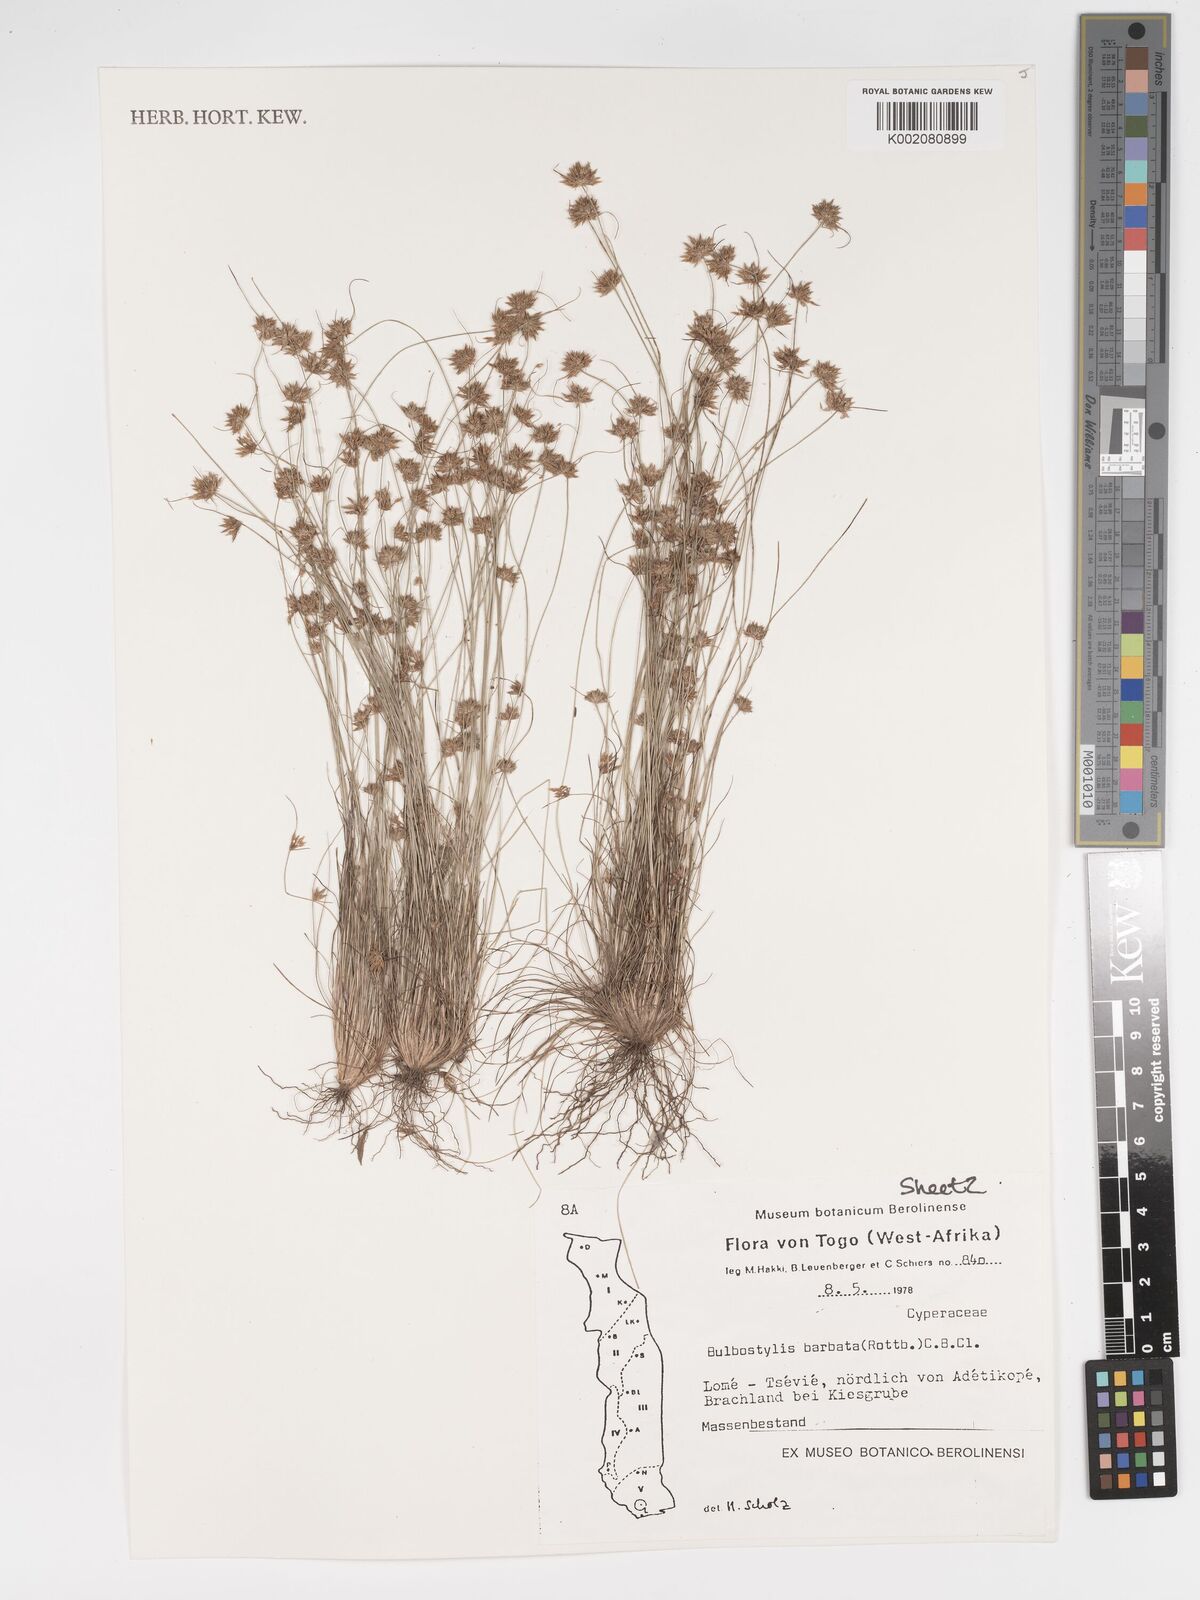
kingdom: Plantae
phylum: Tracheophyta
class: Liliopsida
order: Poales
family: Cyperaceae
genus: Bulbostylis
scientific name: Bulbostylis barbata
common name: Watergrass
